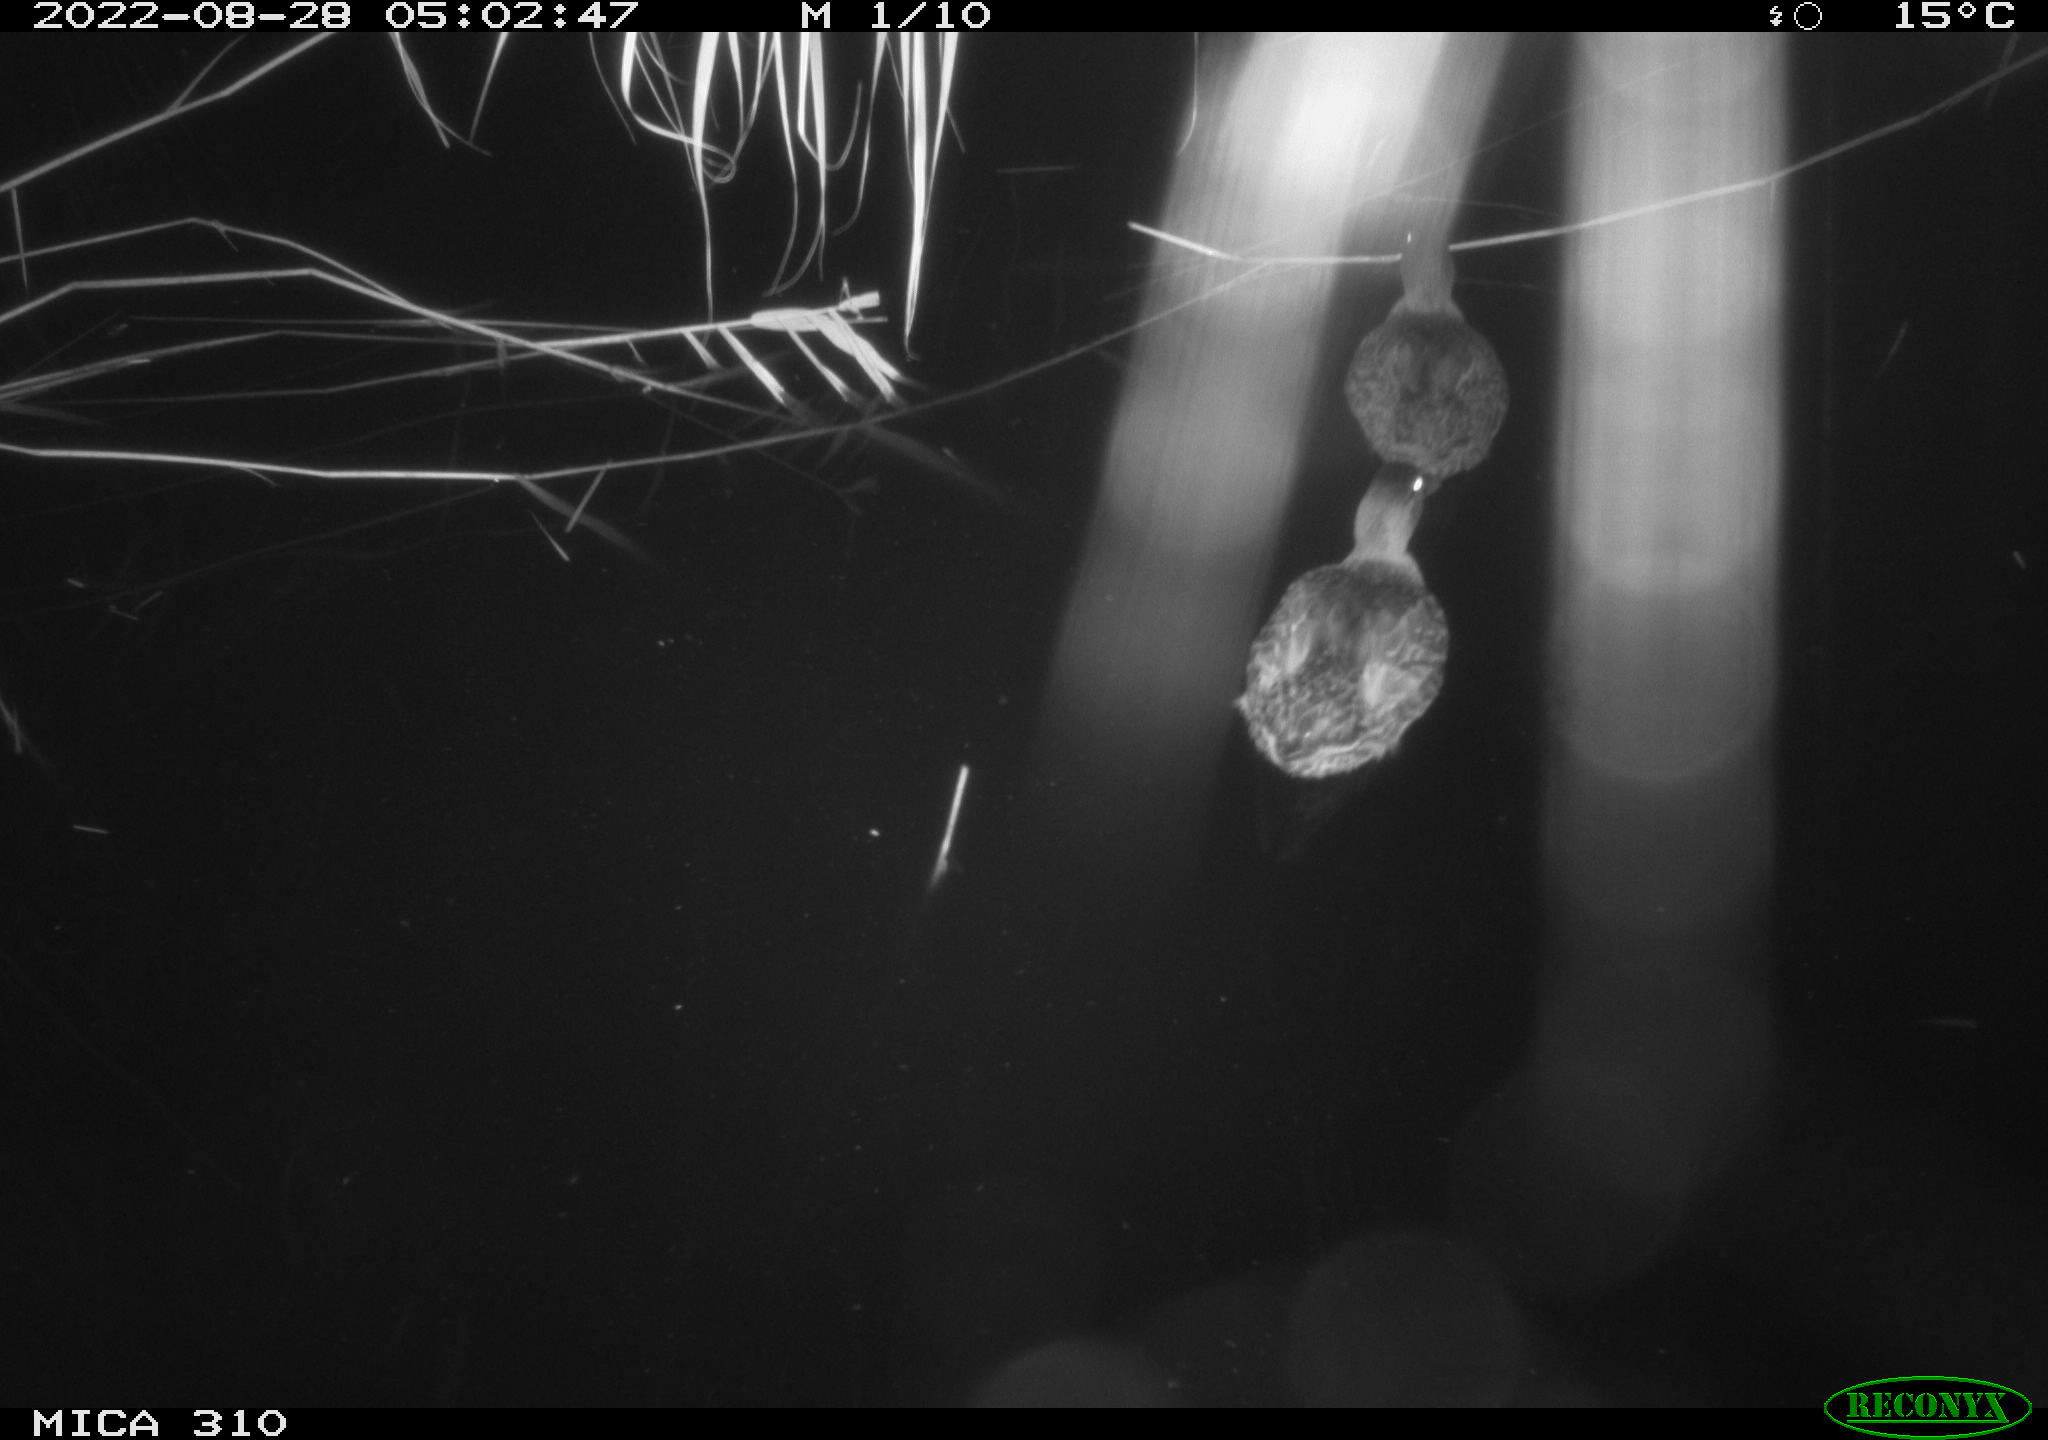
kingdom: Animalia
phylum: Chordata
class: Aves
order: Anseriformes
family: Anatidae
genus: Anas
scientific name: Anas platyrhynchos
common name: Mallard
